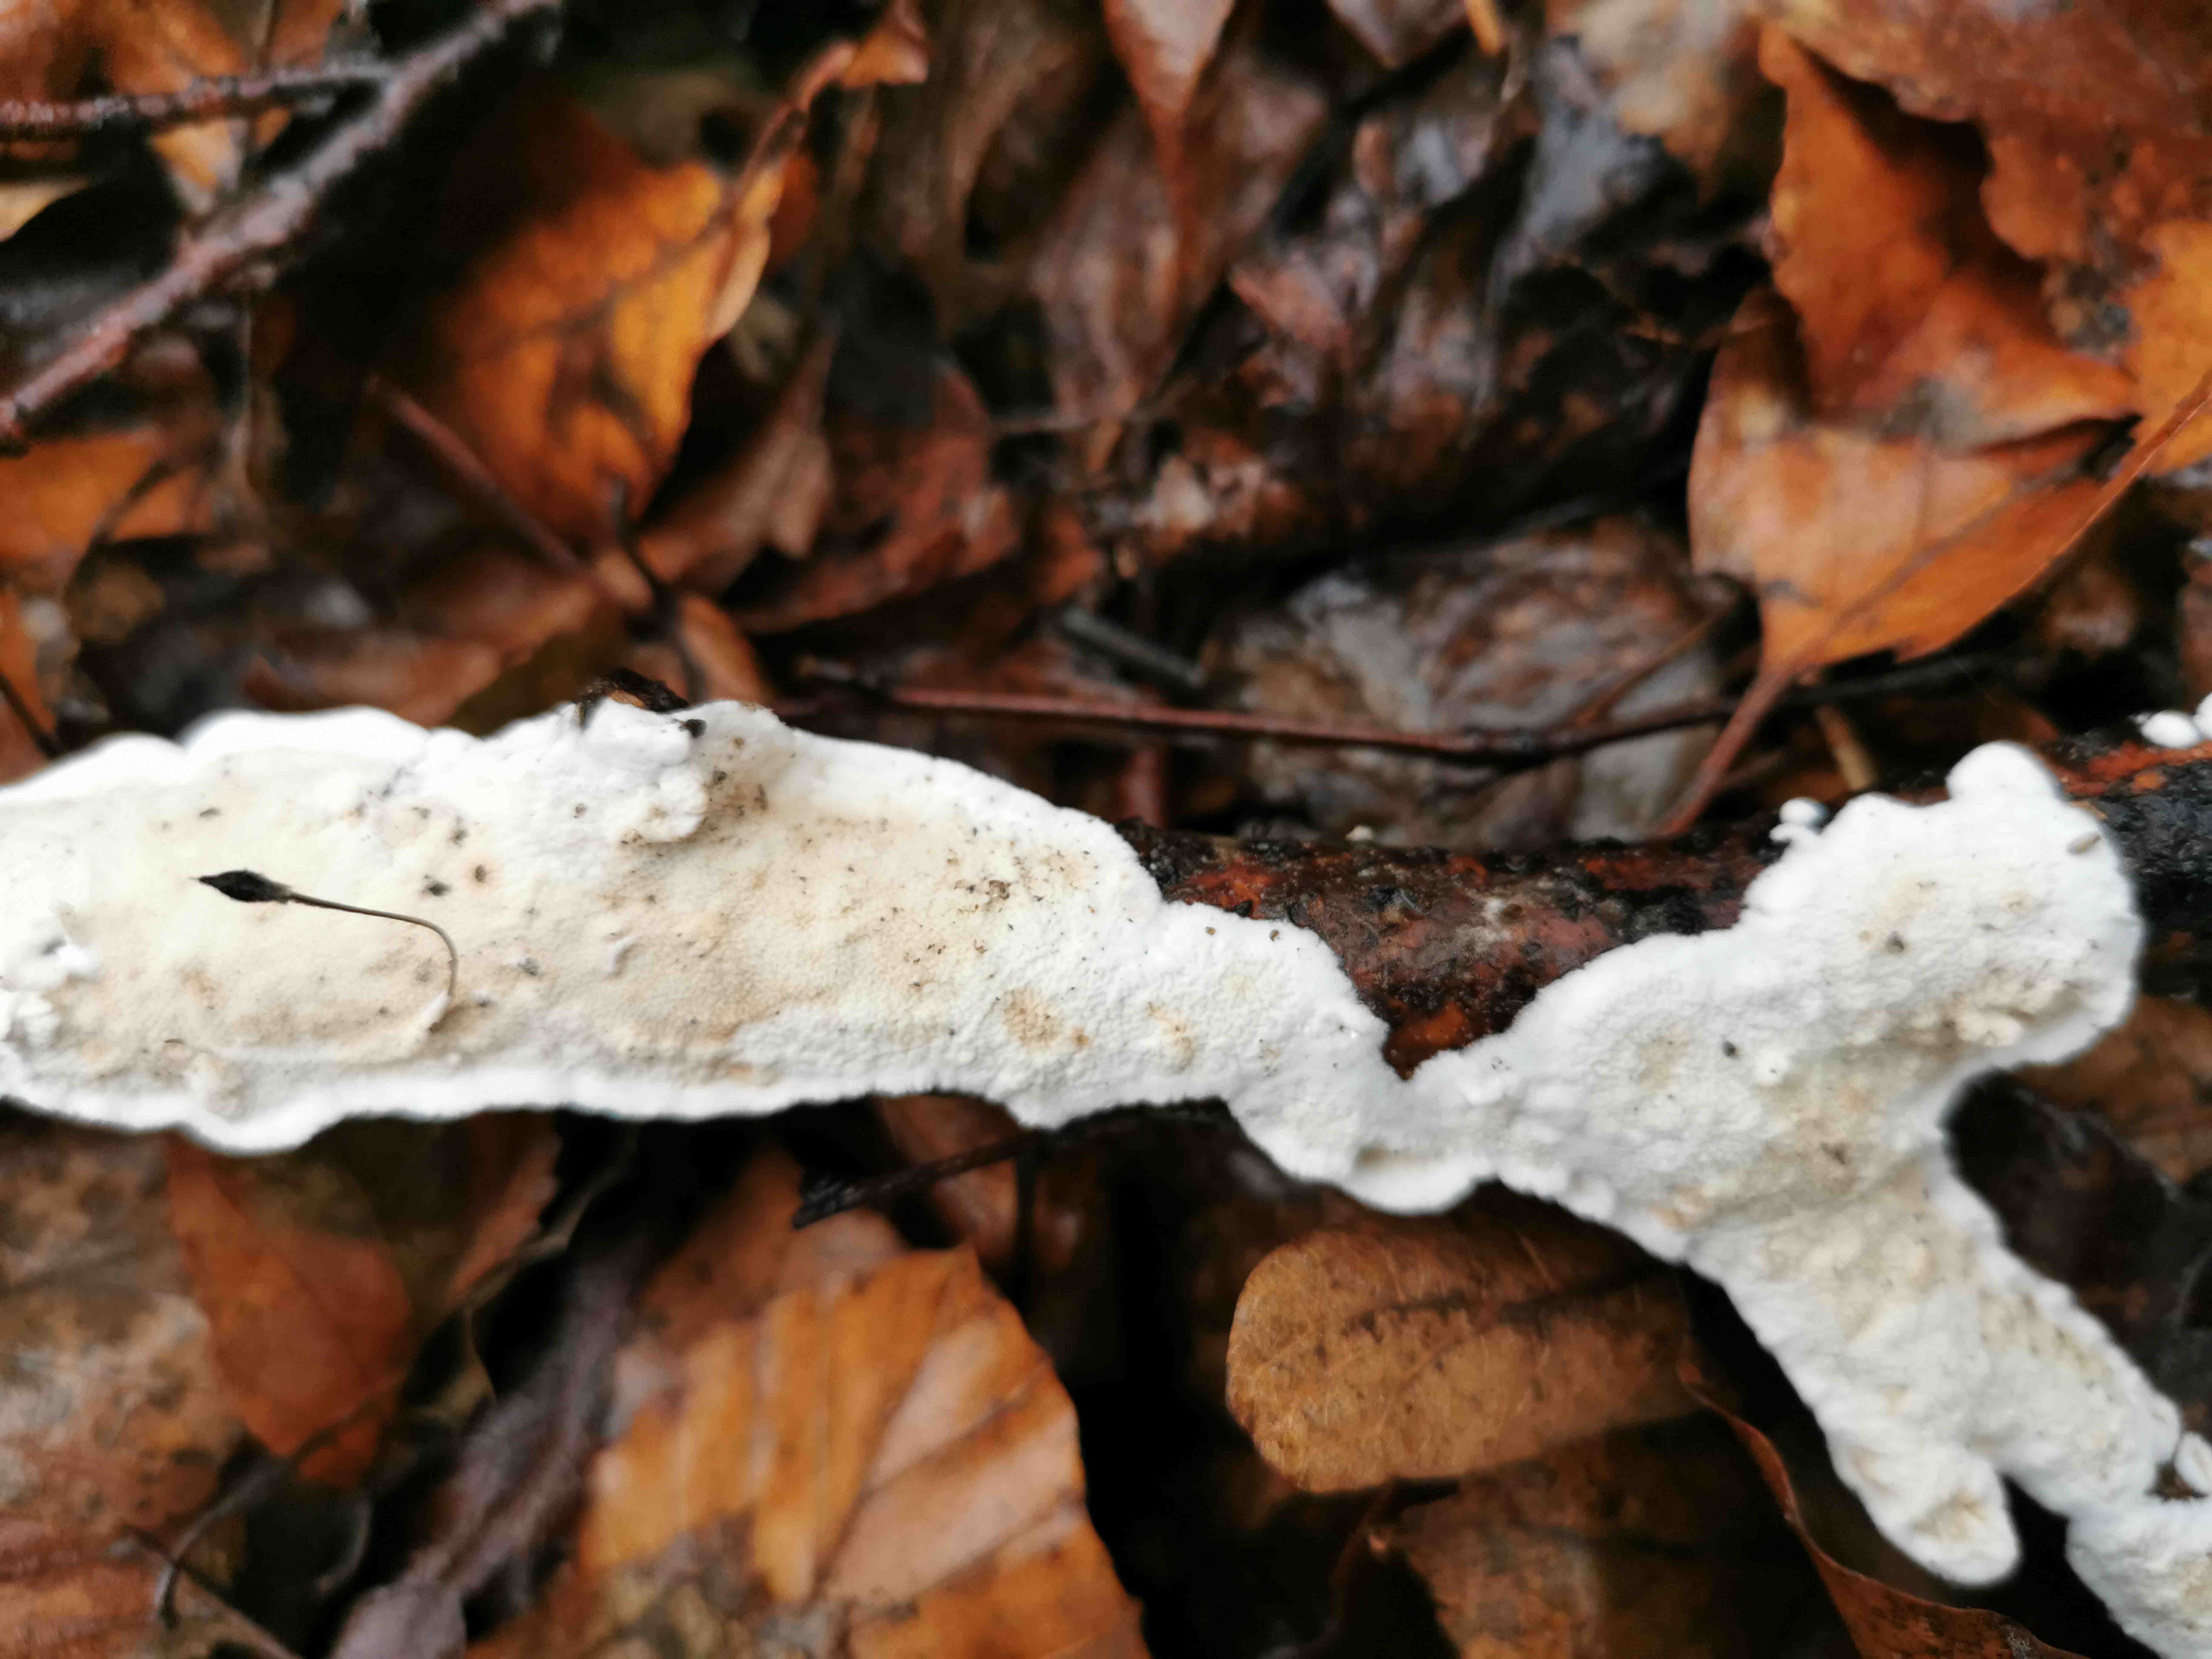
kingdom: Fungi
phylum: Basidiomycota
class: Agaricomycetes
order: Polyporales
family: Irpicaceae
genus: Byssomerulius
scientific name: Byssomerulius corium
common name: læder-åresvamp
